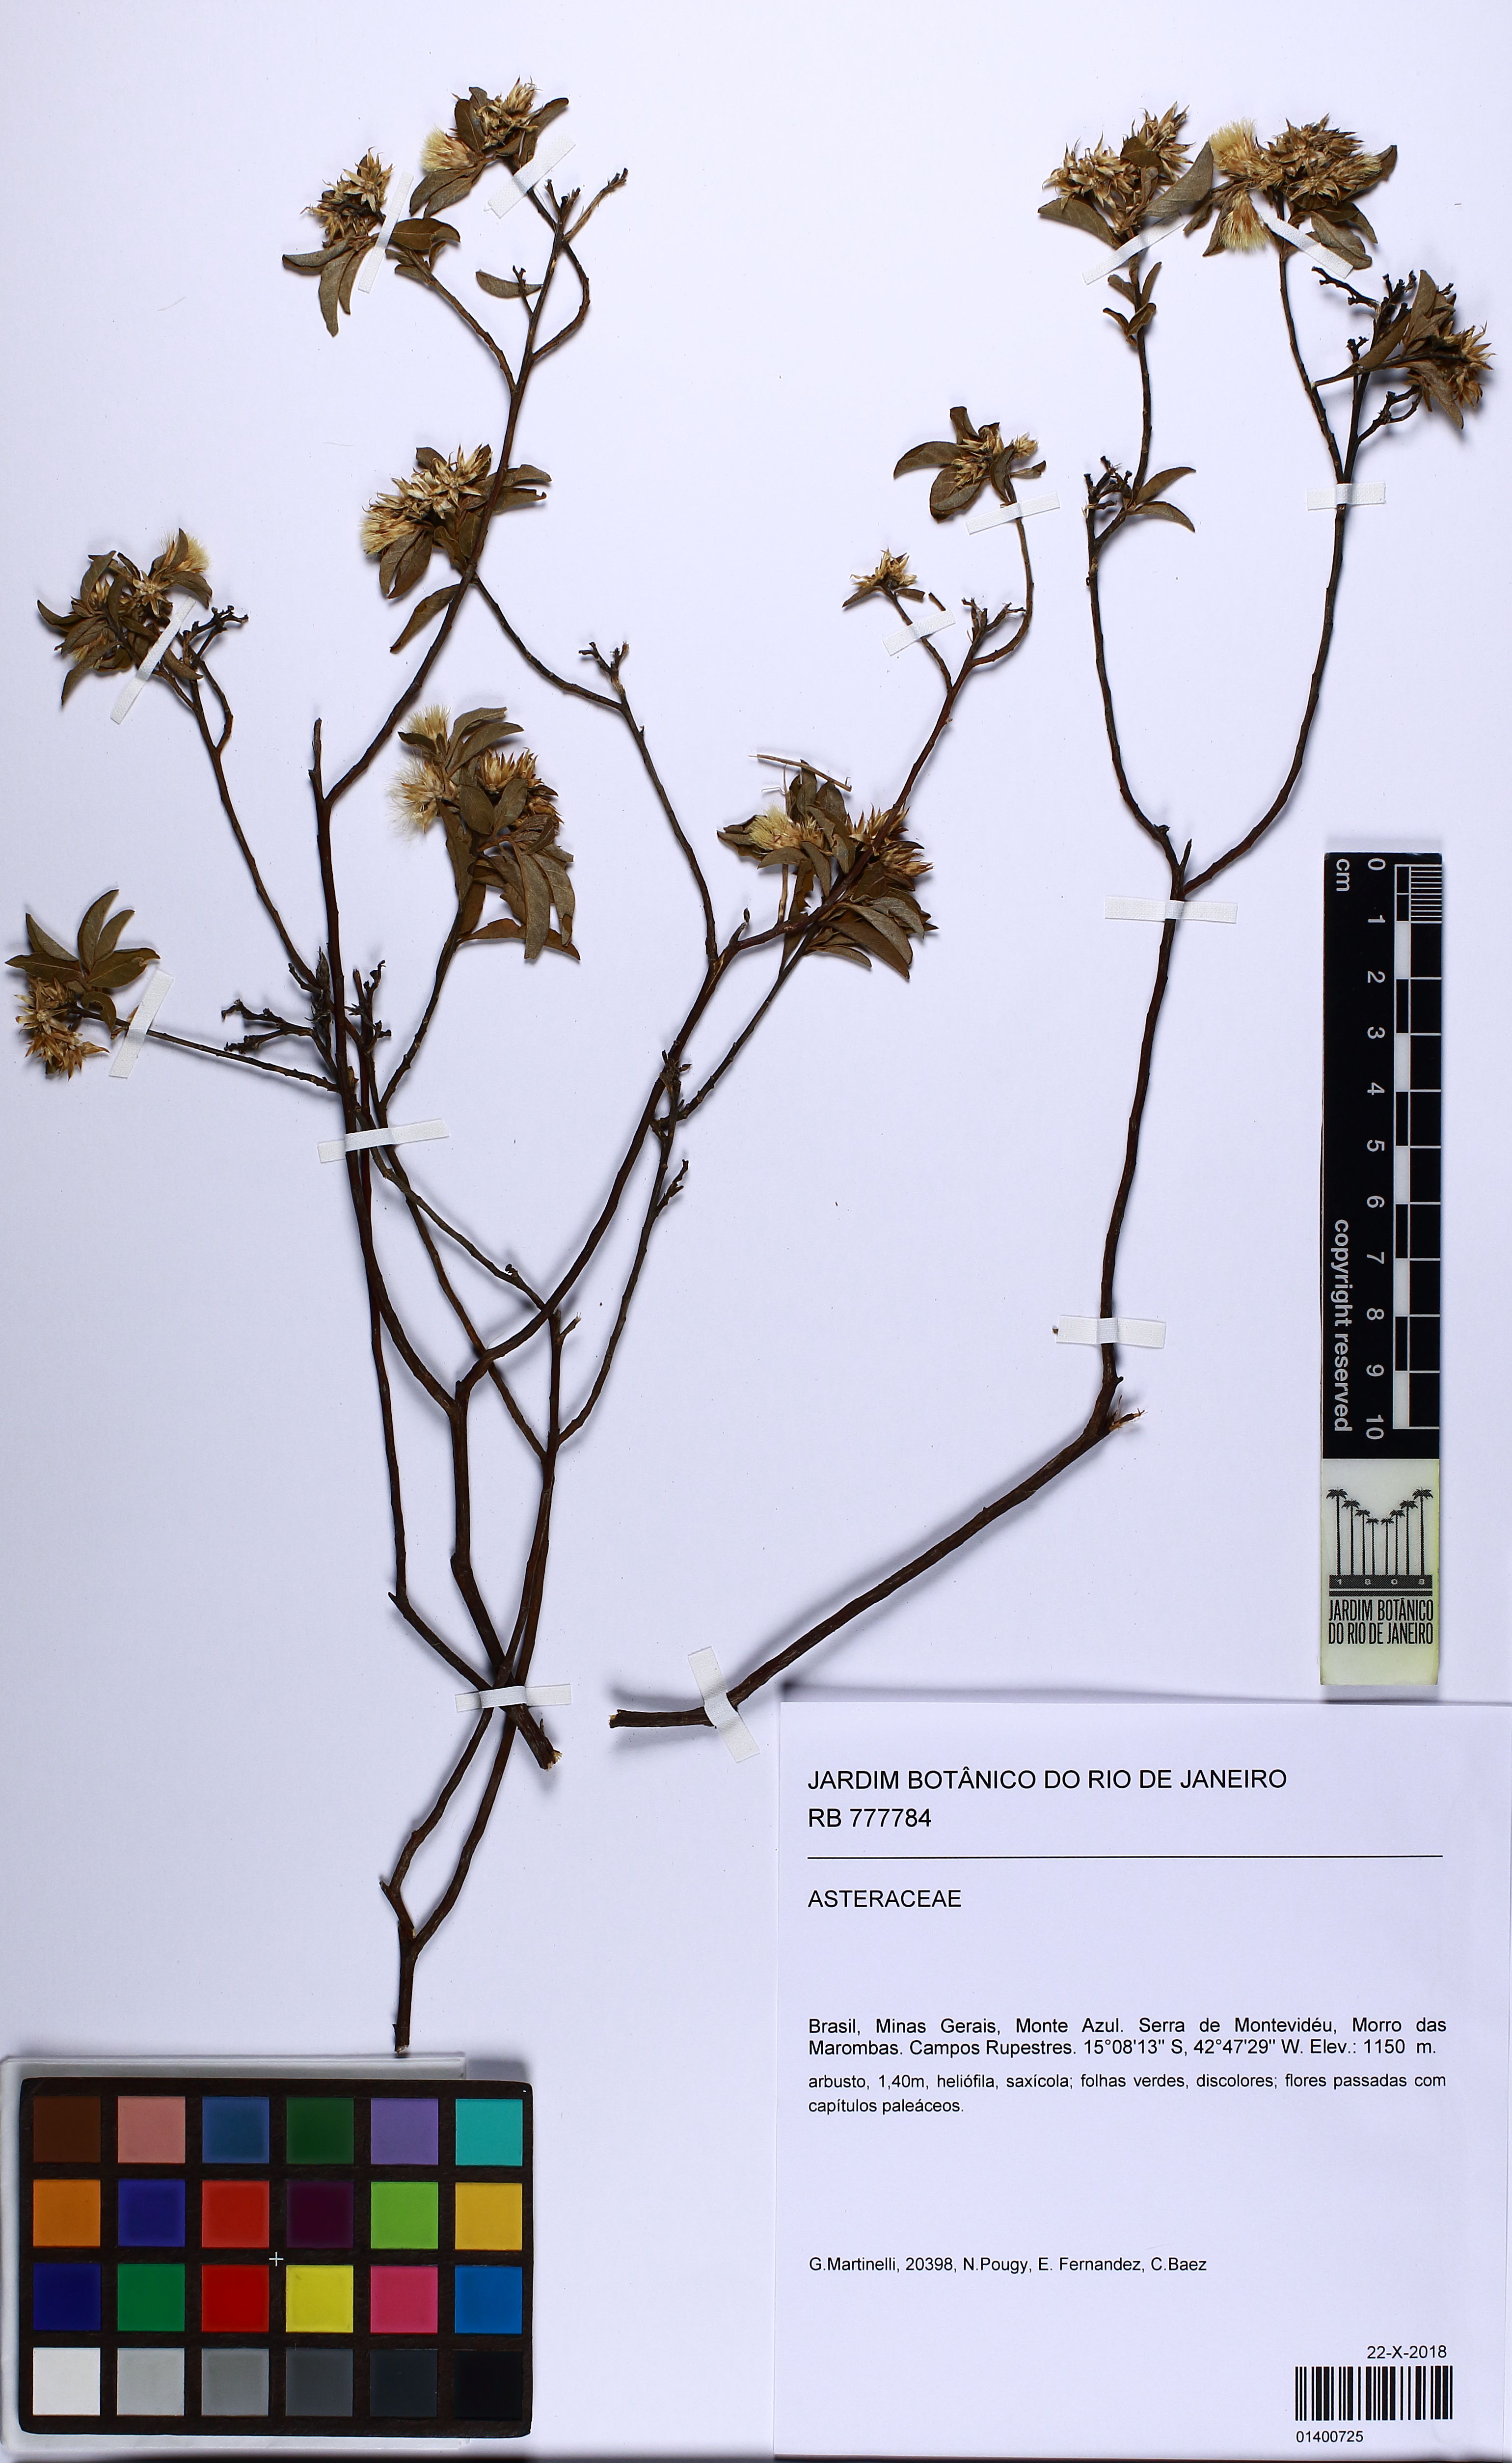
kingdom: Plantae
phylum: Tracheophyta
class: Magnoliopsida
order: Asterales
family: Asteraceae
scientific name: Asteraceae
